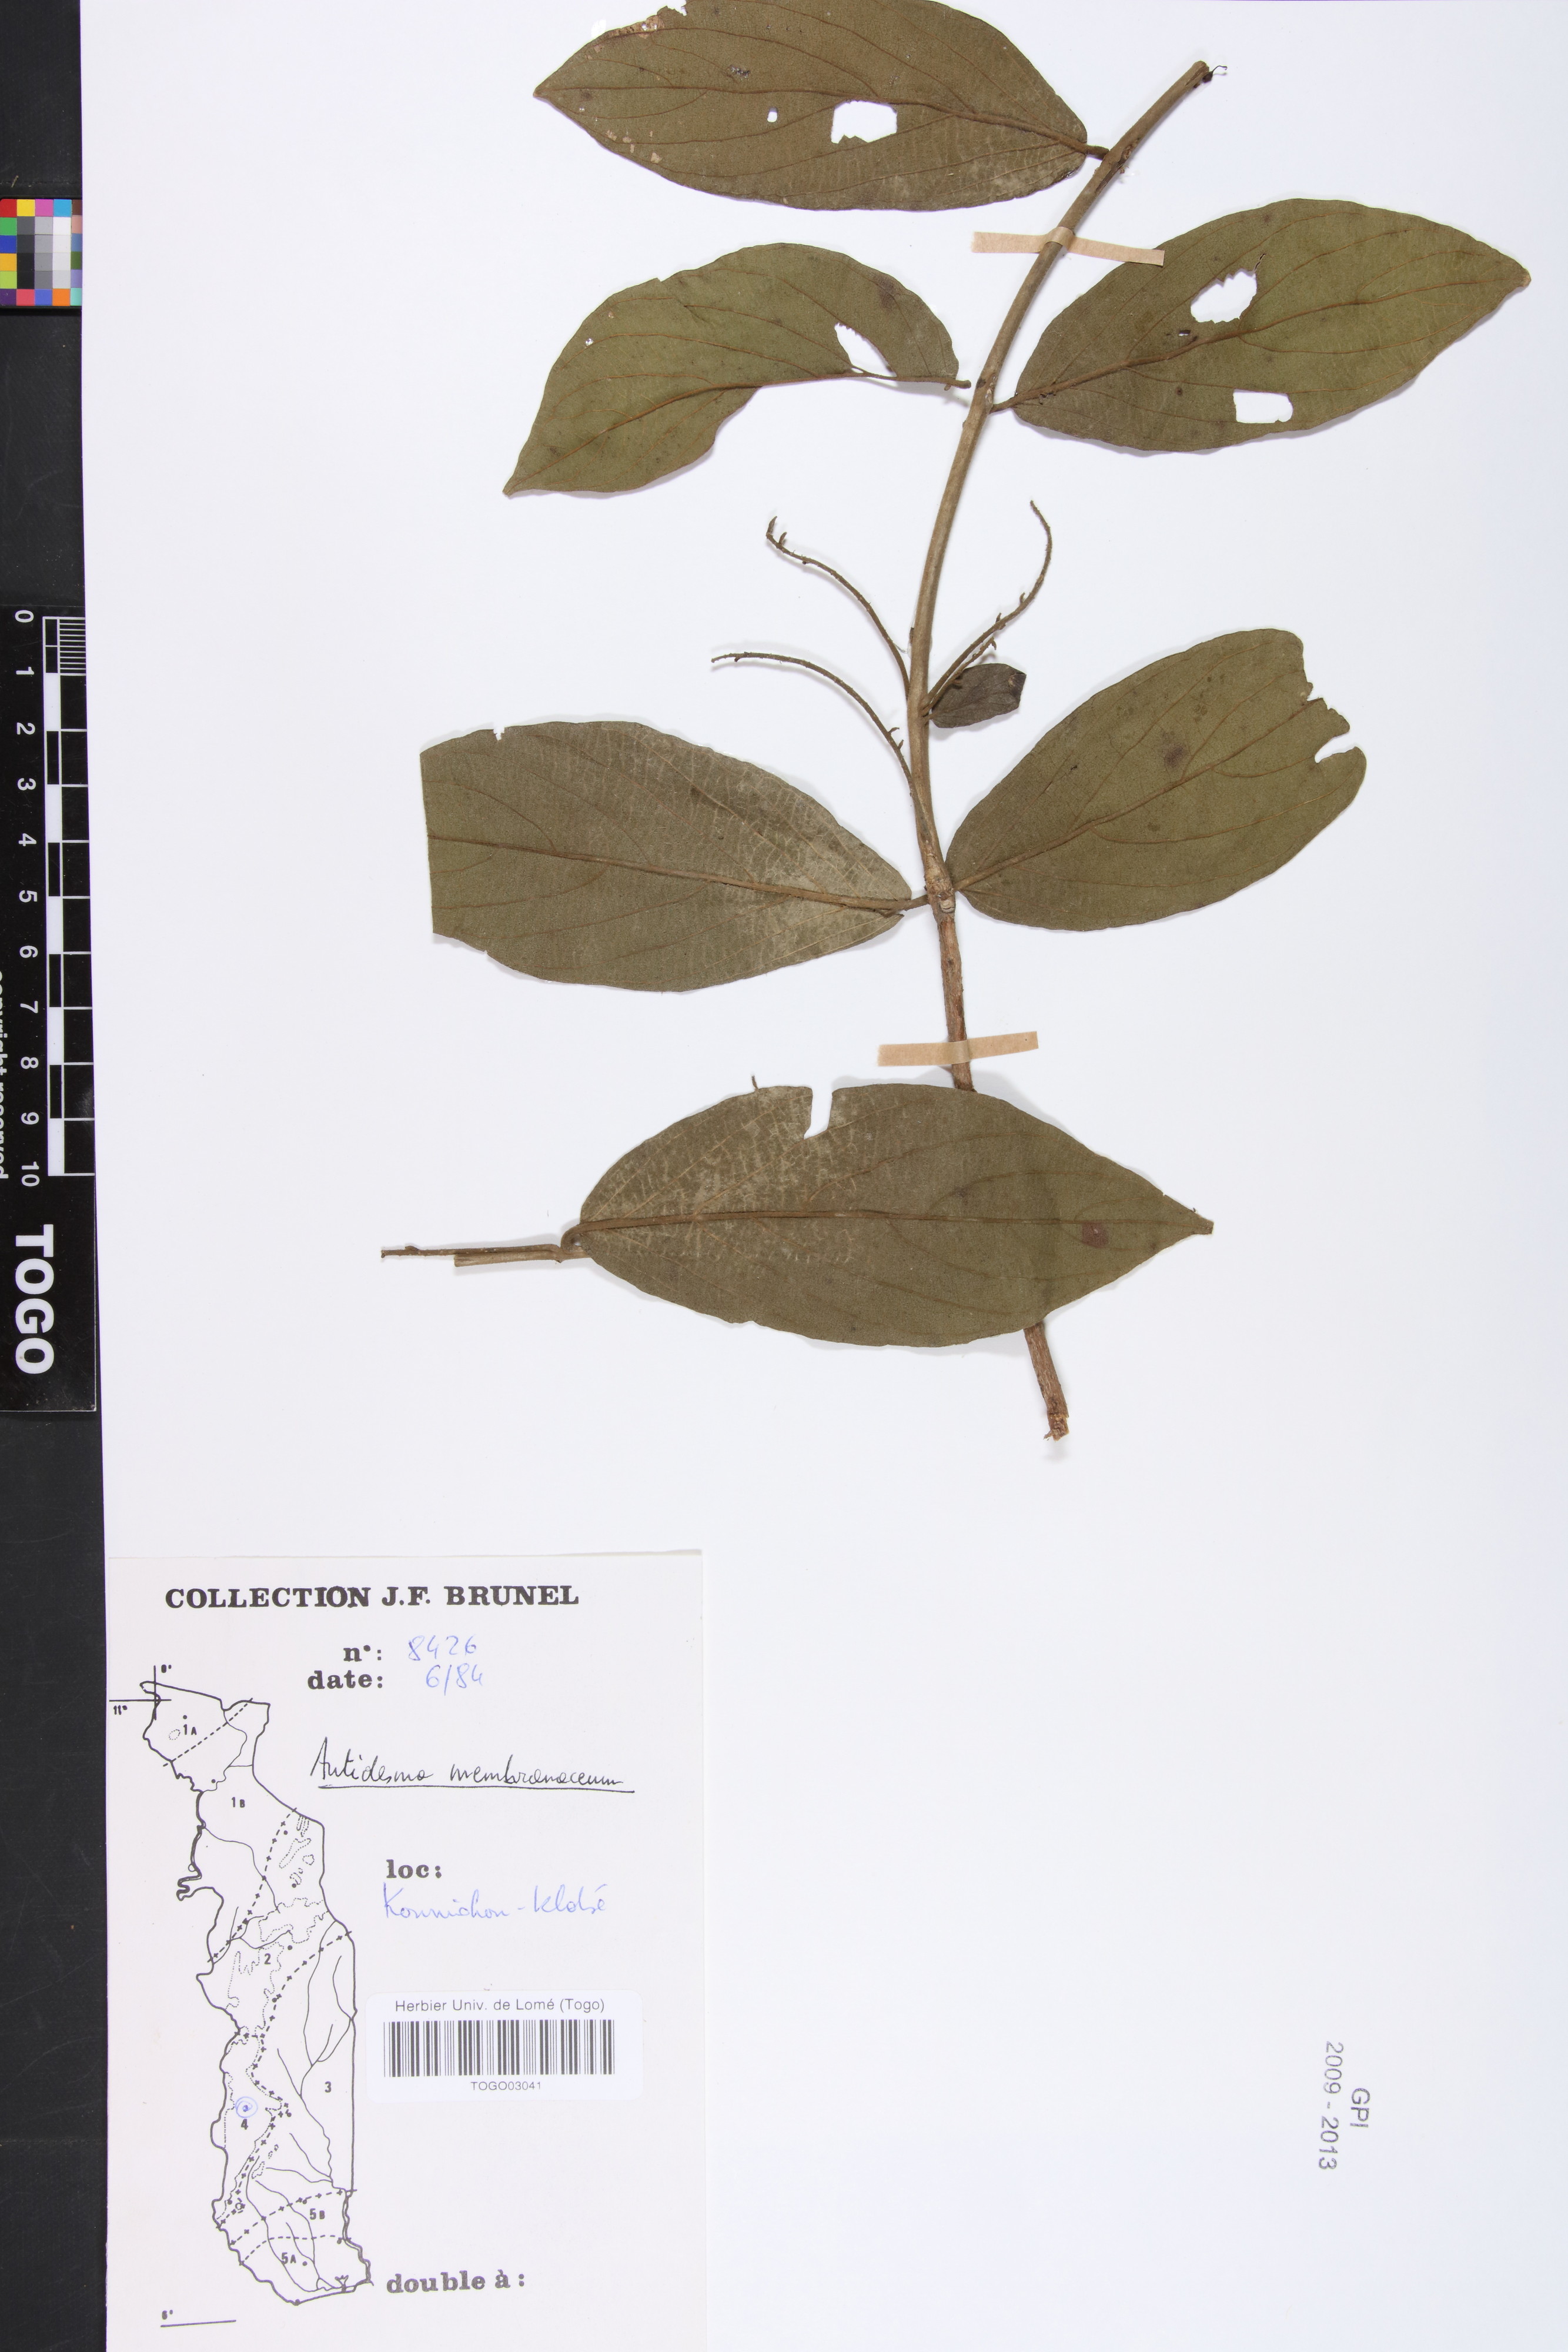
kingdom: Plantae
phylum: Tracheophyta
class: Magnoliopsida
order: Malpighiales
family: Phyllanthaceae
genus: Antidesma
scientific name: Antidesma membranaceum
